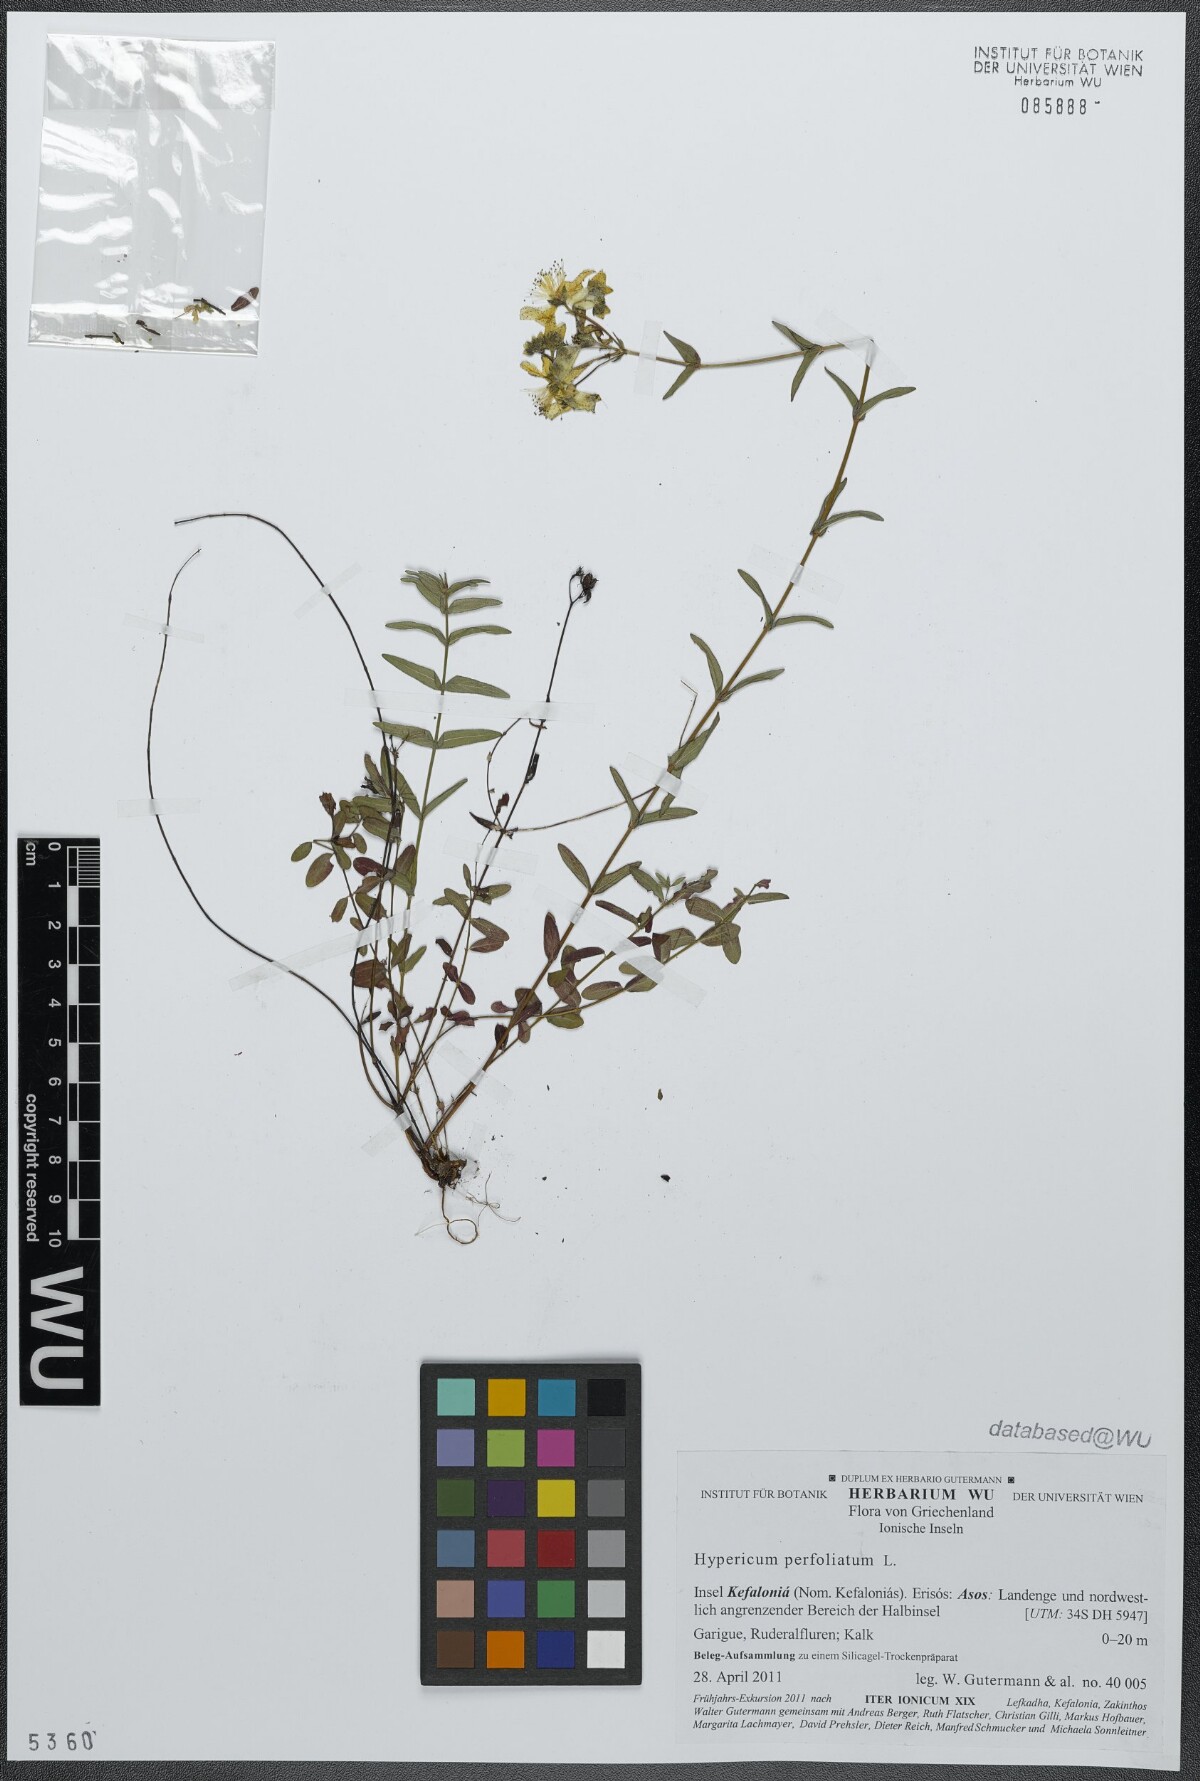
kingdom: Plantae
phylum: Tracheophyta
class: Magnoliopsida
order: Malpighiales
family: Hypericaceae
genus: Hypericum
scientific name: Hypericum perfoliatum
